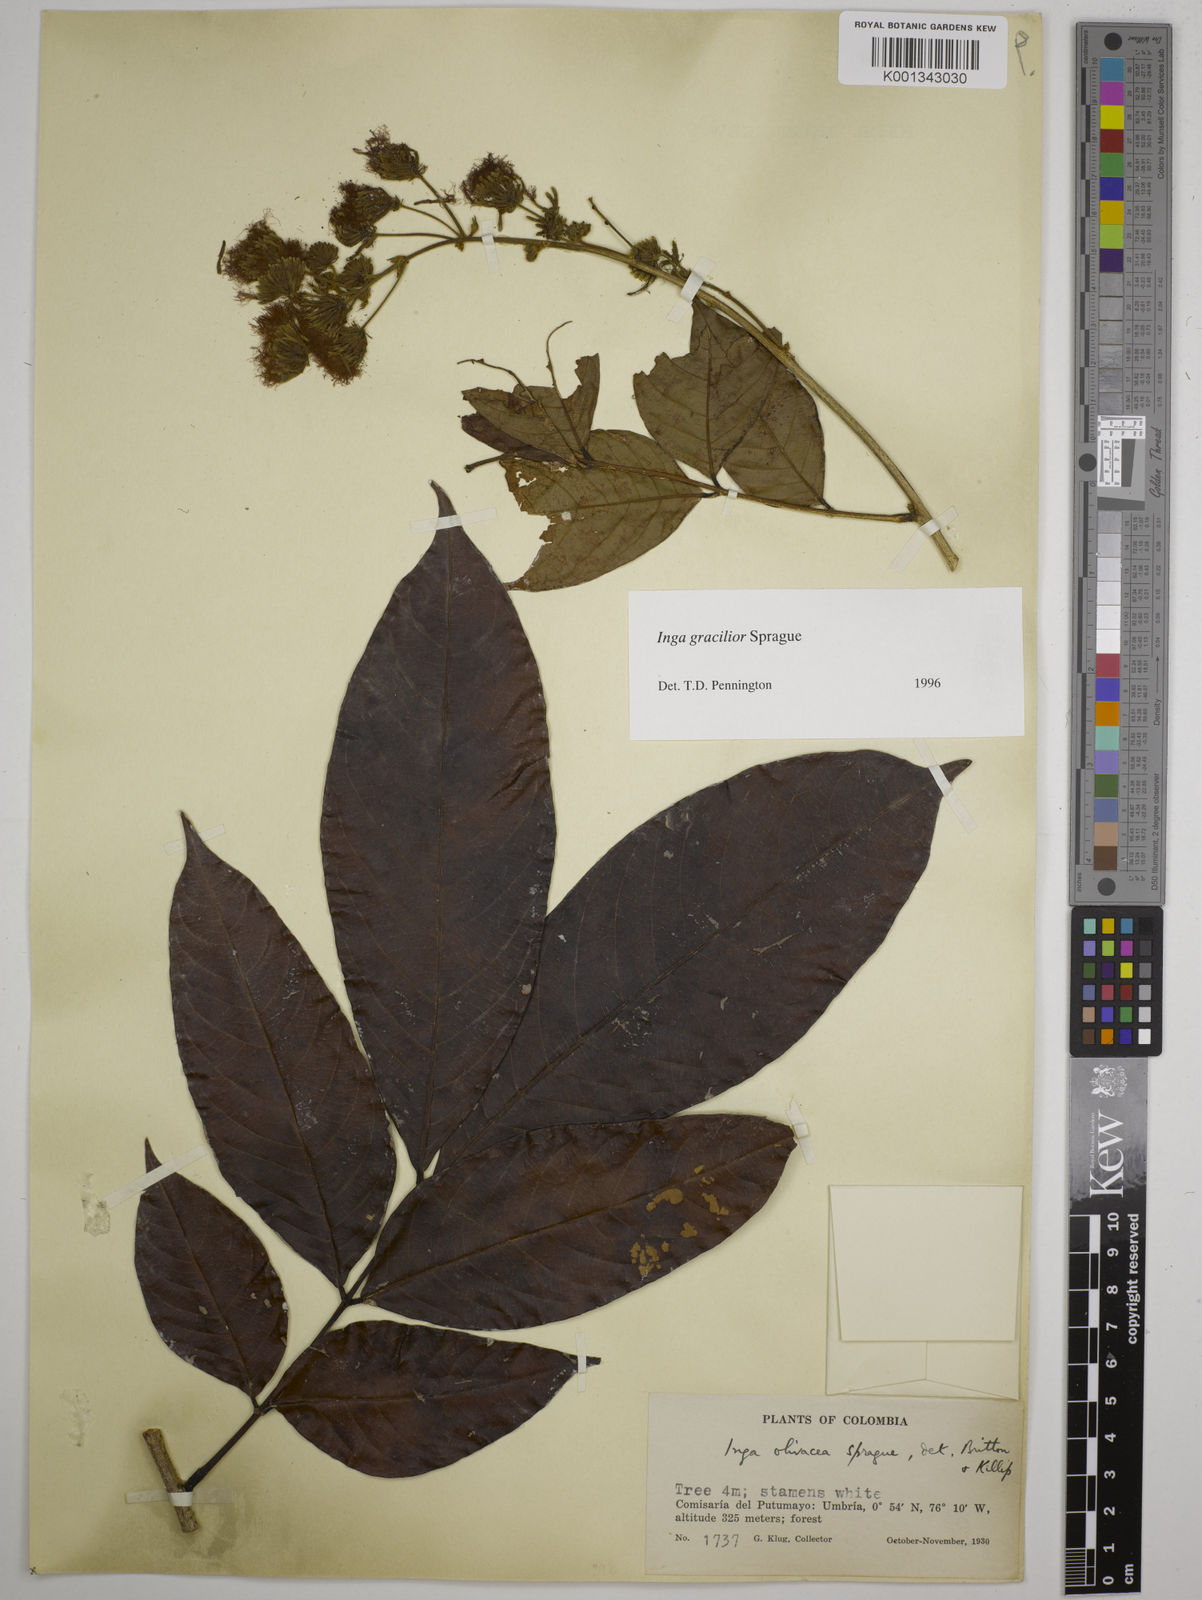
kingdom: Plantae
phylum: Tracheophyta
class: Magnoliopsida
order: Fabales
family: Fabaceae
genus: Inga
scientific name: Inga gracilior
